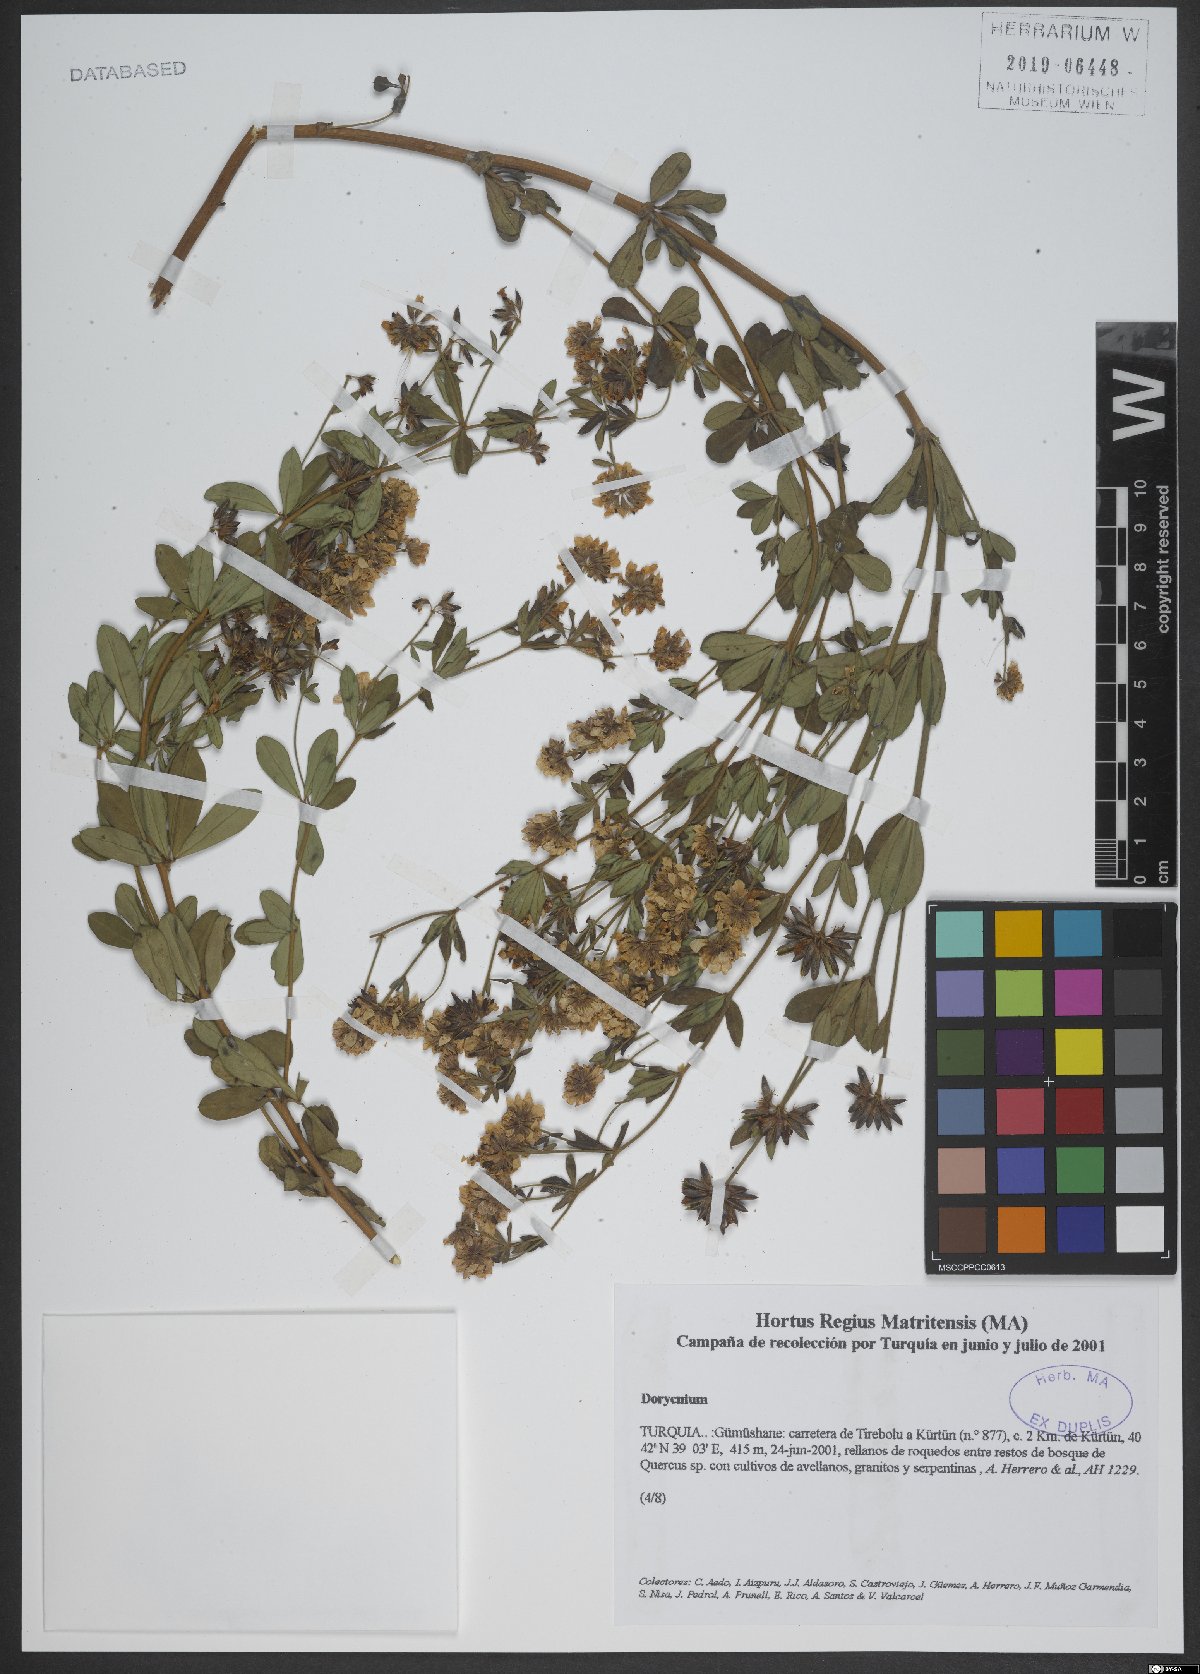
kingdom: Plantae
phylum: Tracheophyta
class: Magnoliopsida
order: Fabales
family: Fabaceae
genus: Lotus
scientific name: Lotus
